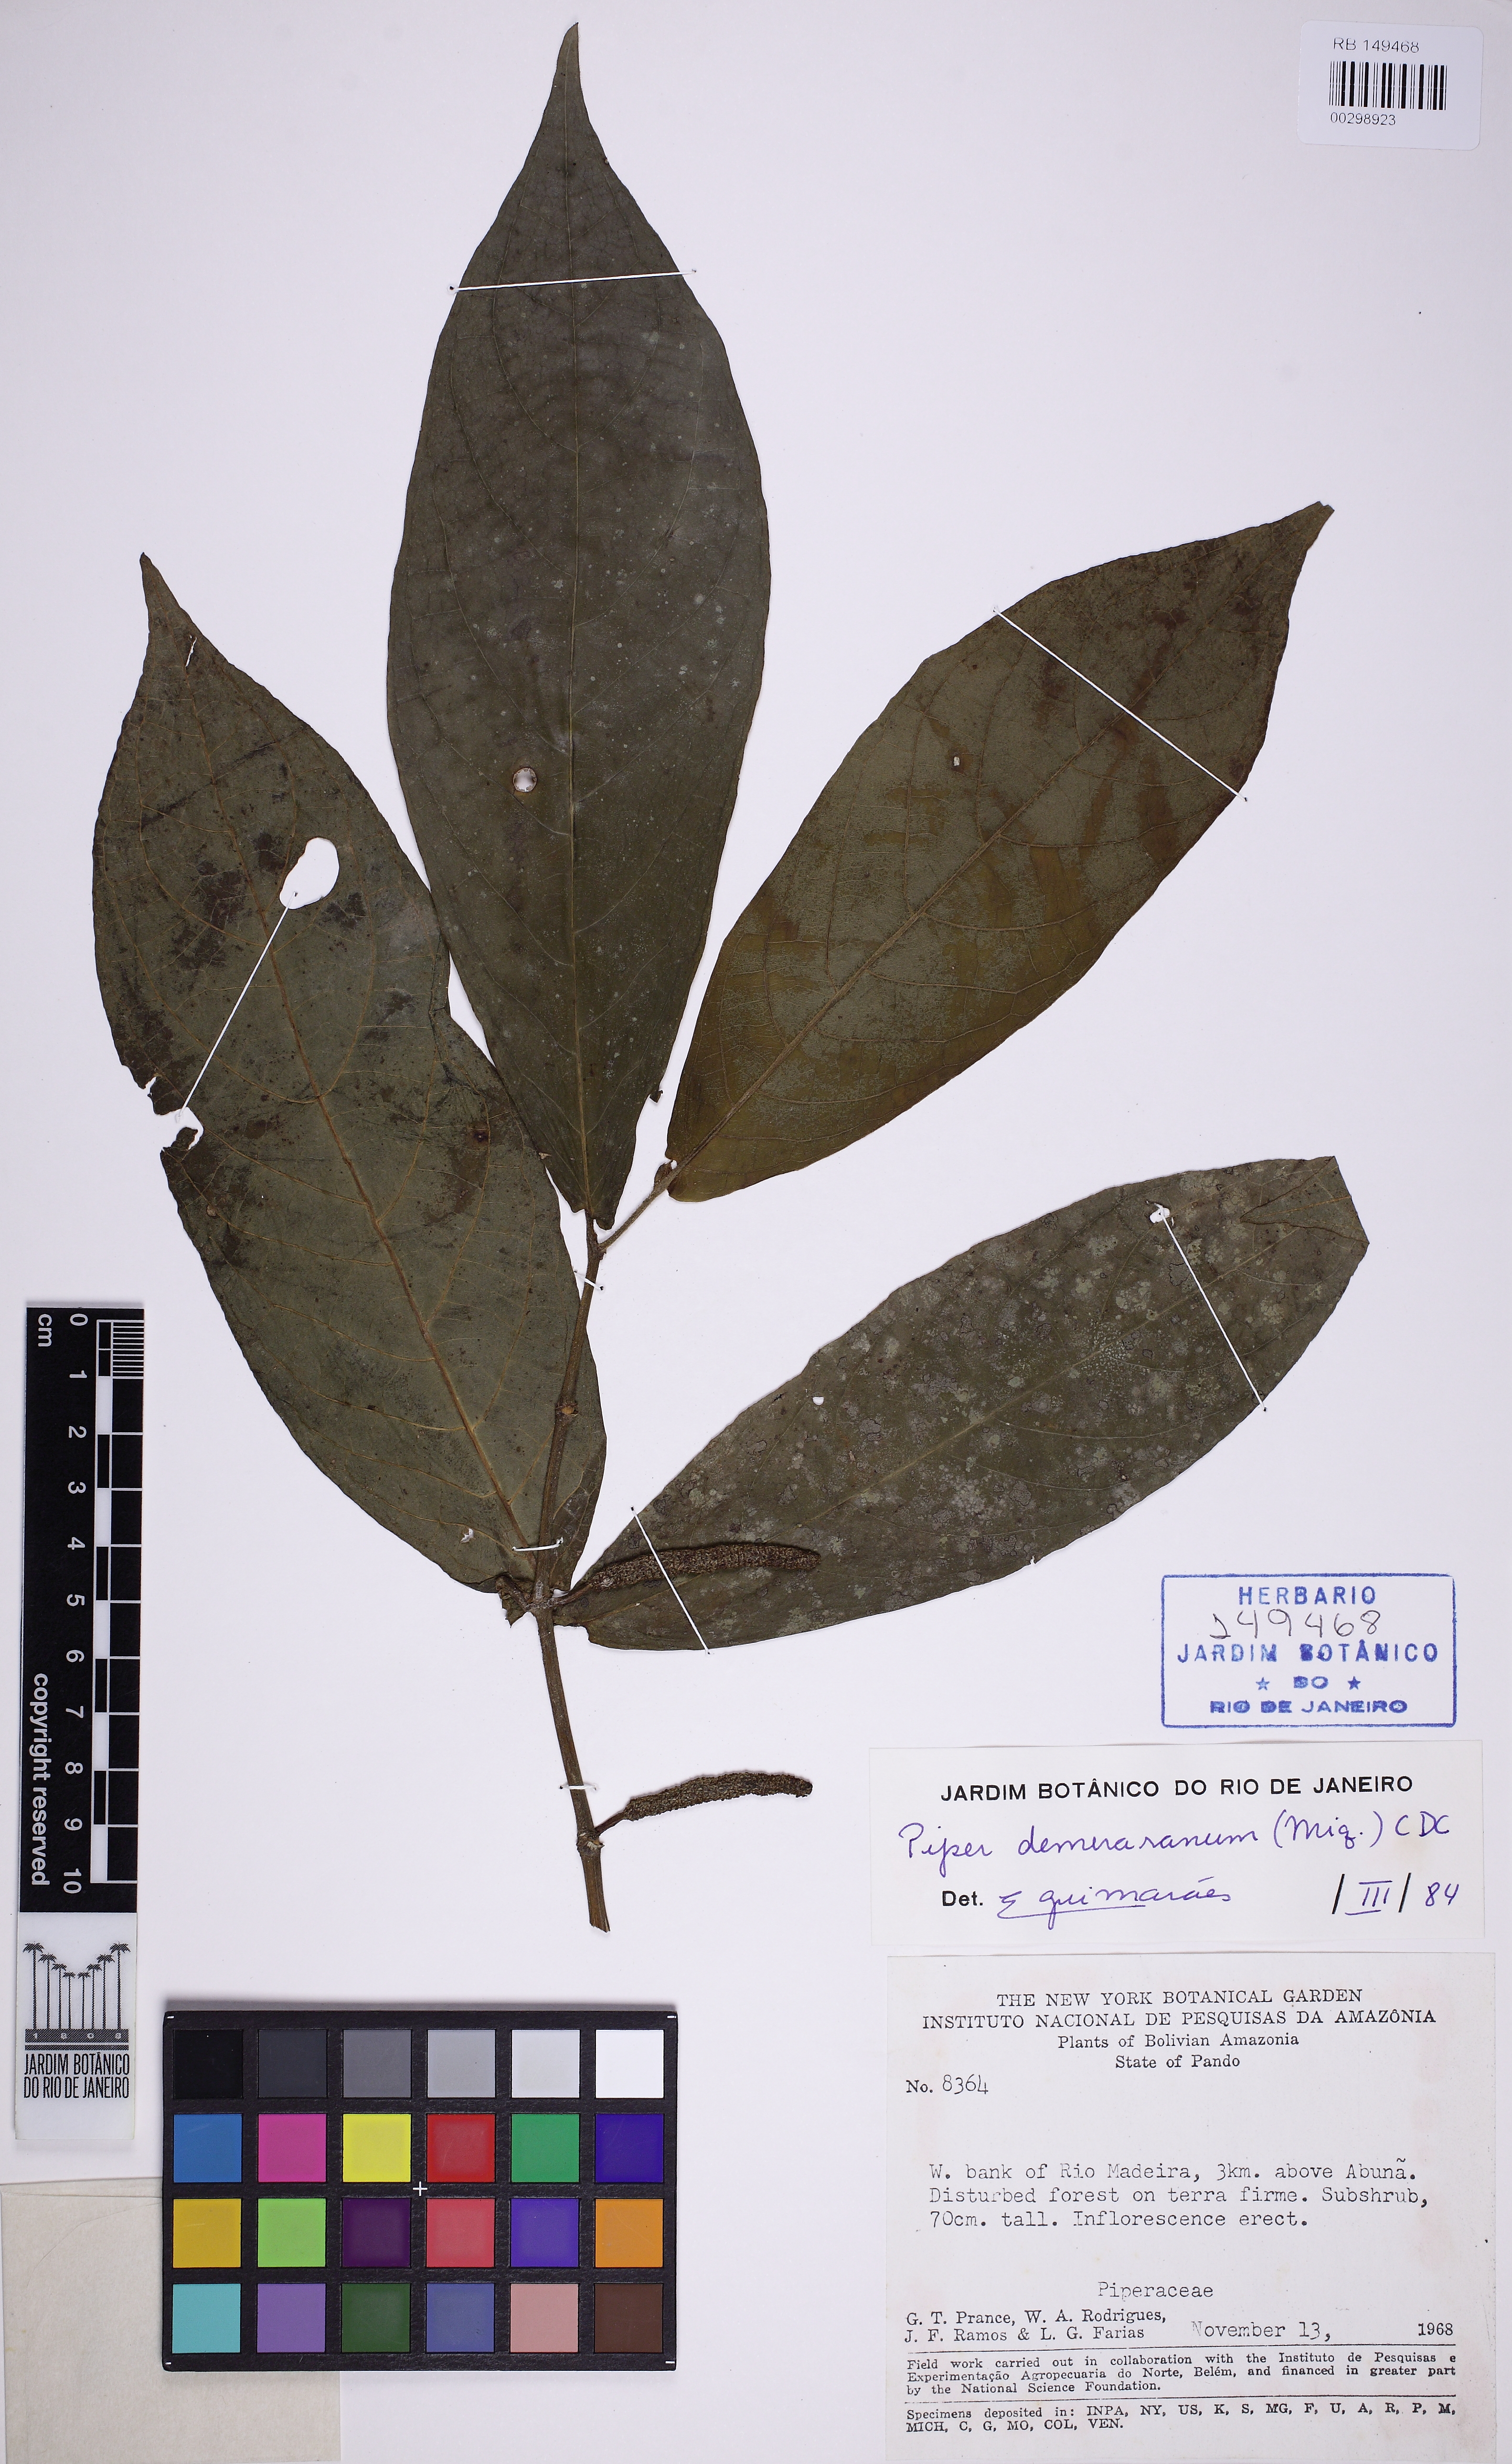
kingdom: Plantae
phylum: Tracheophyta
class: Magnoliopsida
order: Piperales
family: Piperaceae
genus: Piper
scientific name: Piper demeraranum
